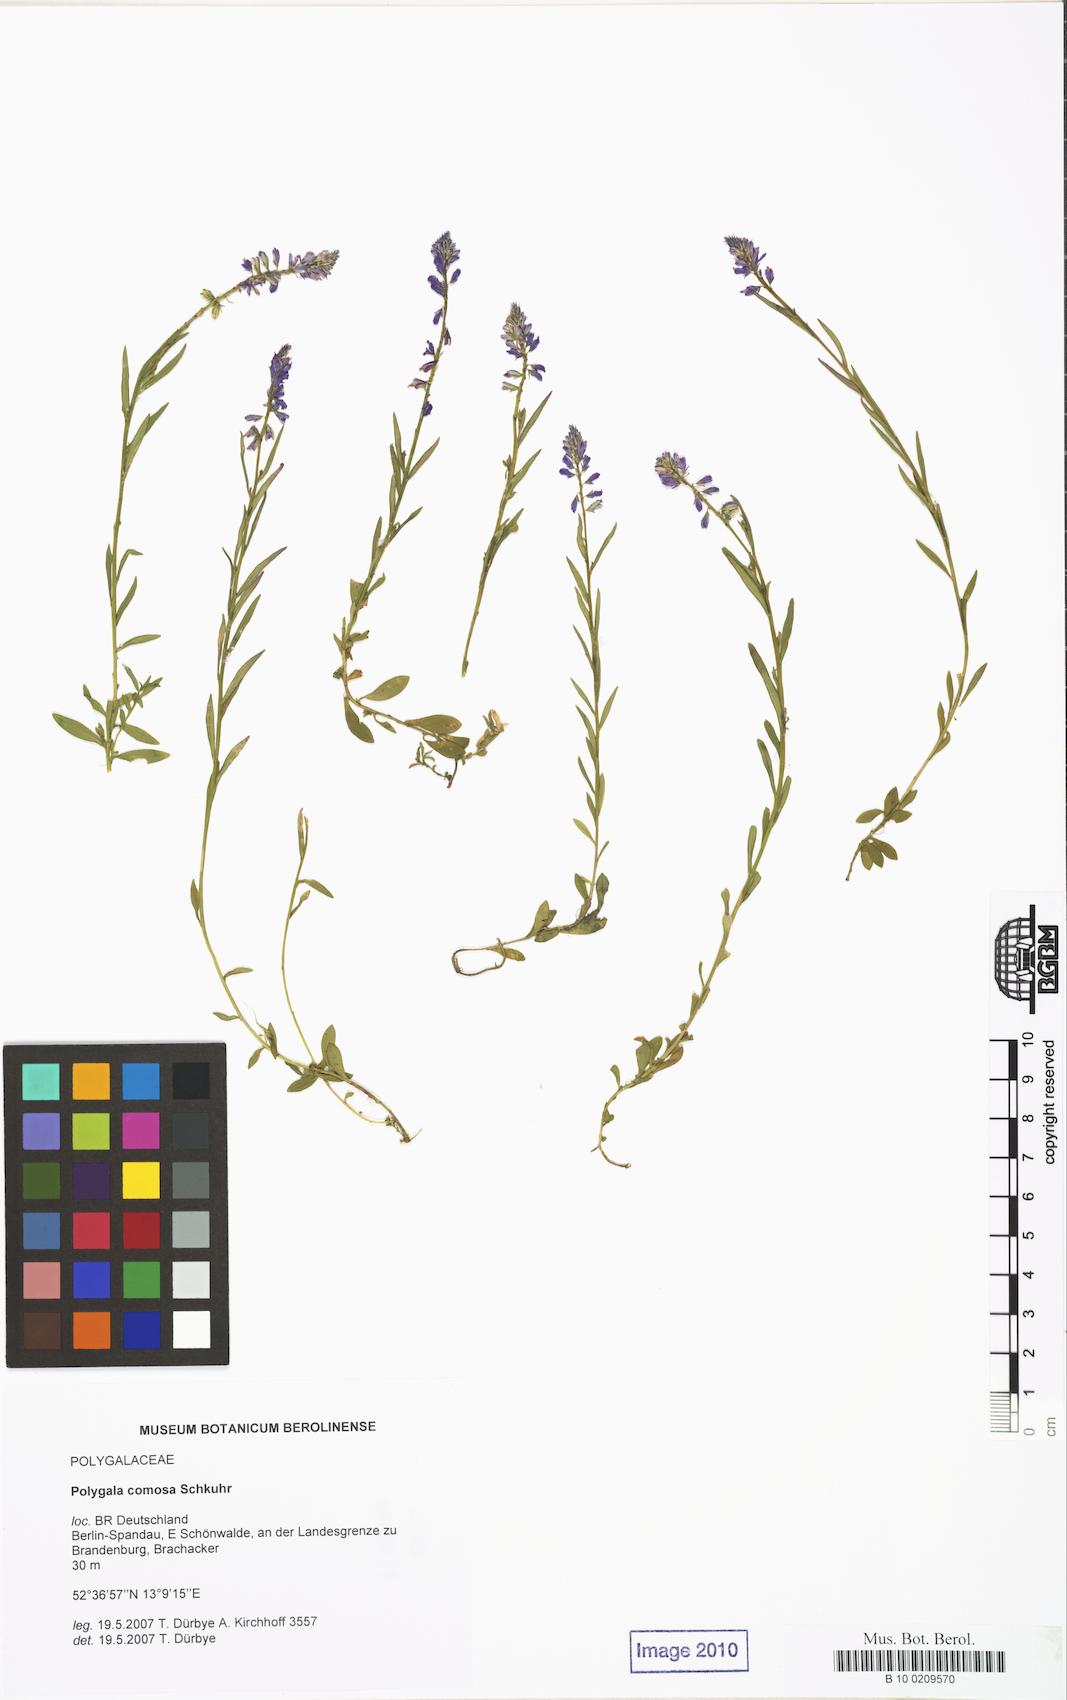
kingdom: Plantae
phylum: Tracheophyta
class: Magnoliopsida
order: Fabales
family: Polygalaceae
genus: Polygala
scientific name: Polygala comosa
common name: Tufted milkwort
